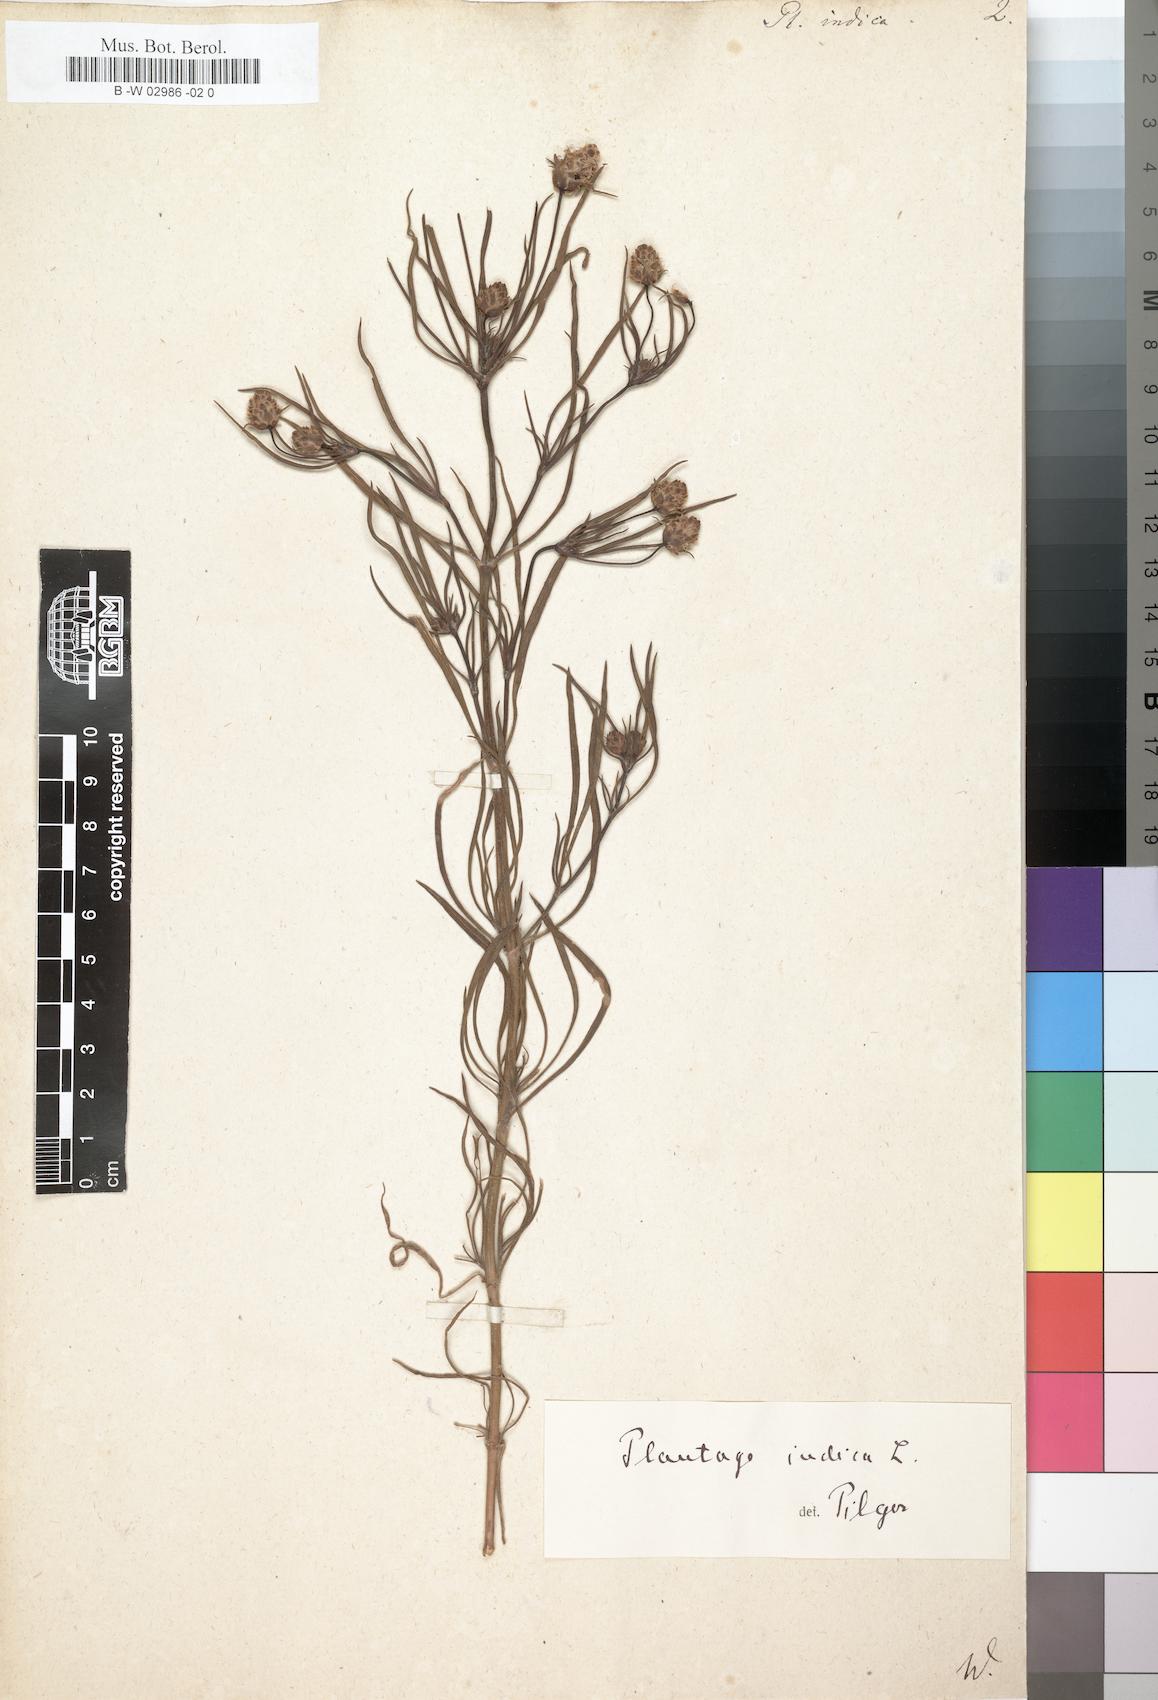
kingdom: Plantae
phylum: Tracheophyta
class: Magnoliopsida
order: Lamiales
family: Plantaginaceae
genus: Plantago
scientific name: Plantago arenaria
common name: Branched plantain
